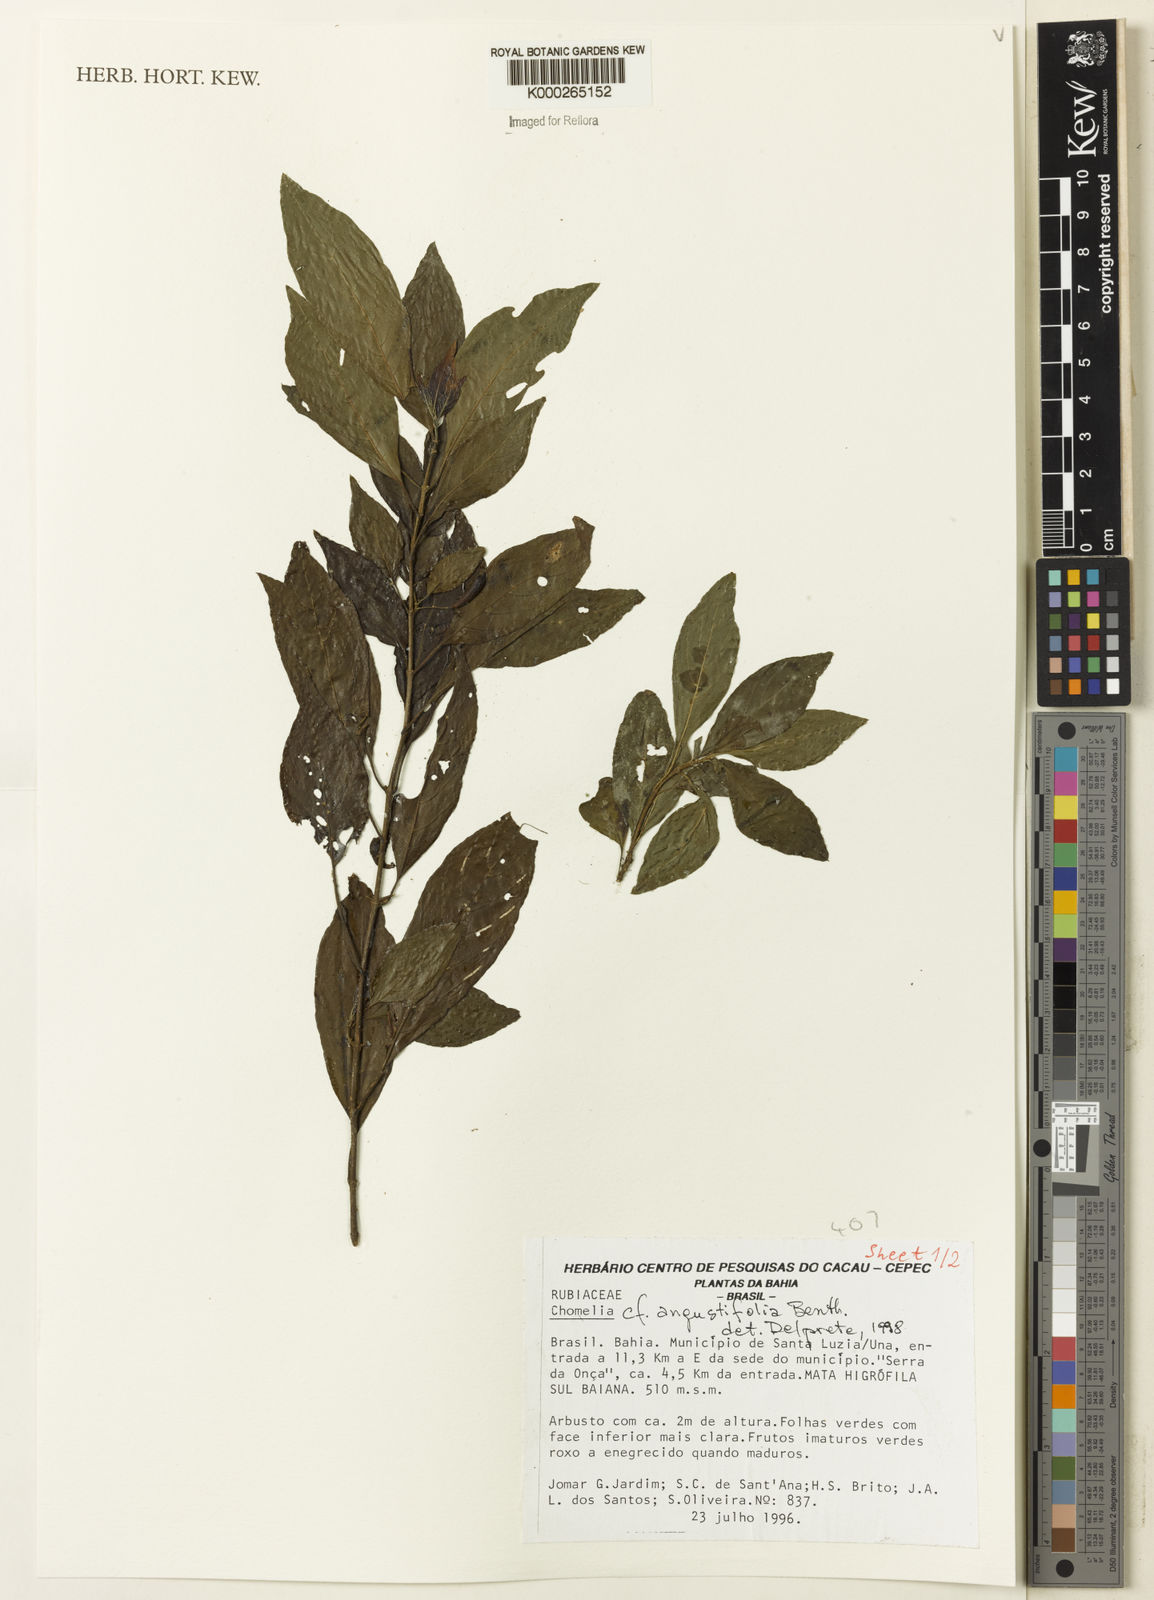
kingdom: Plantae
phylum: Tracheophyta
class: Magnoliopsida
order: Gentianales
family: Rubiaceae
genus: Chomelia
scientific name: Chomelia obtusa
